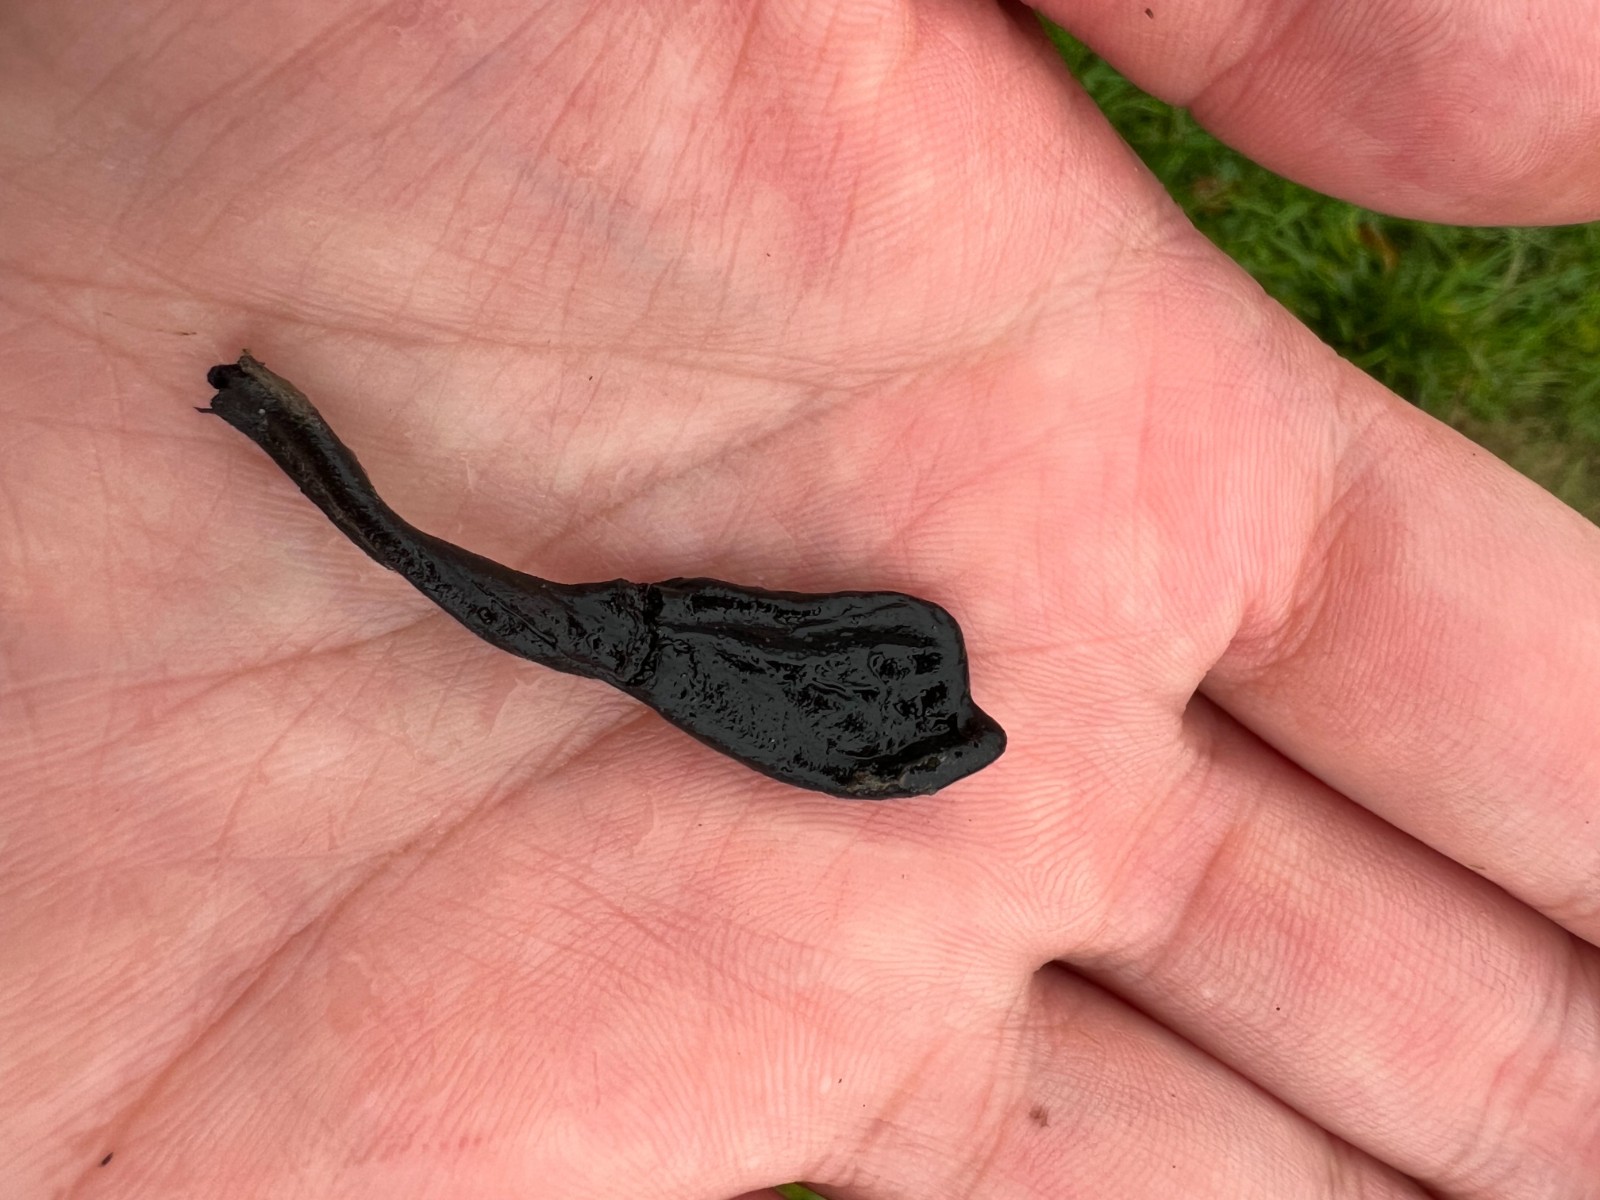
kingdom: Fungi
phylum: Ascomycota
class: Geoglossomycetes
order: Geoglossales
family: Geoglossaceae
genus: Trichoglossum
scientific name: Trichoglossum hirsutum
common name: håret jordtunge
